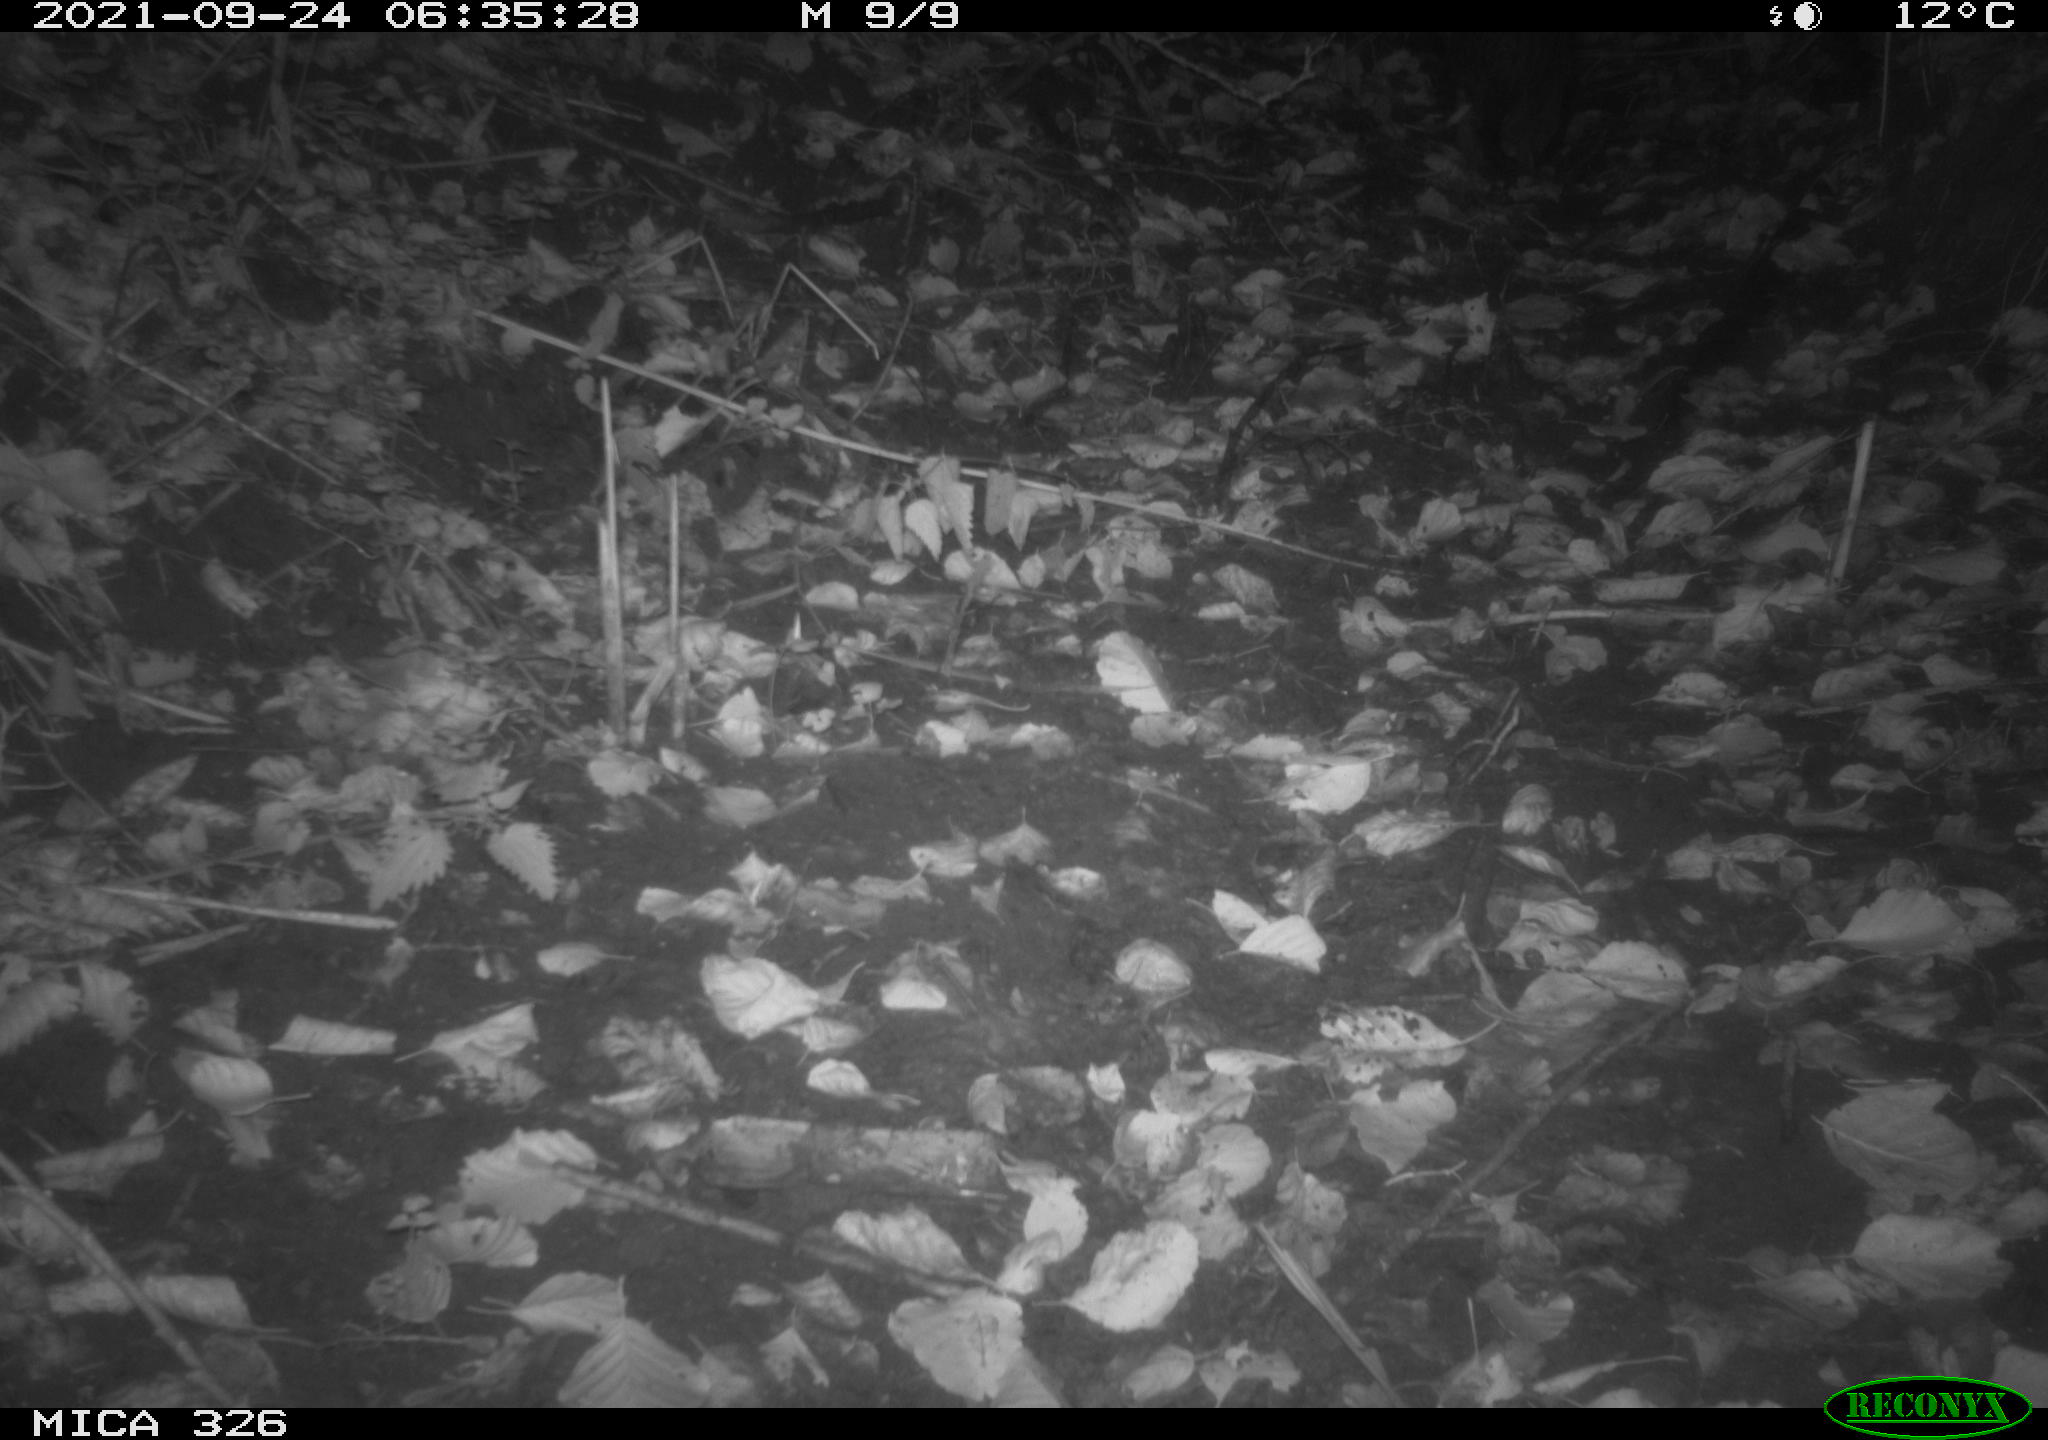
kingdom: Animalia
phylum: Chordata
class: Mammalia
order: Rodentia
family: Myocastoridae
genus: Myocastor
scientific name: Myocastor coypus
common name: Coypu
